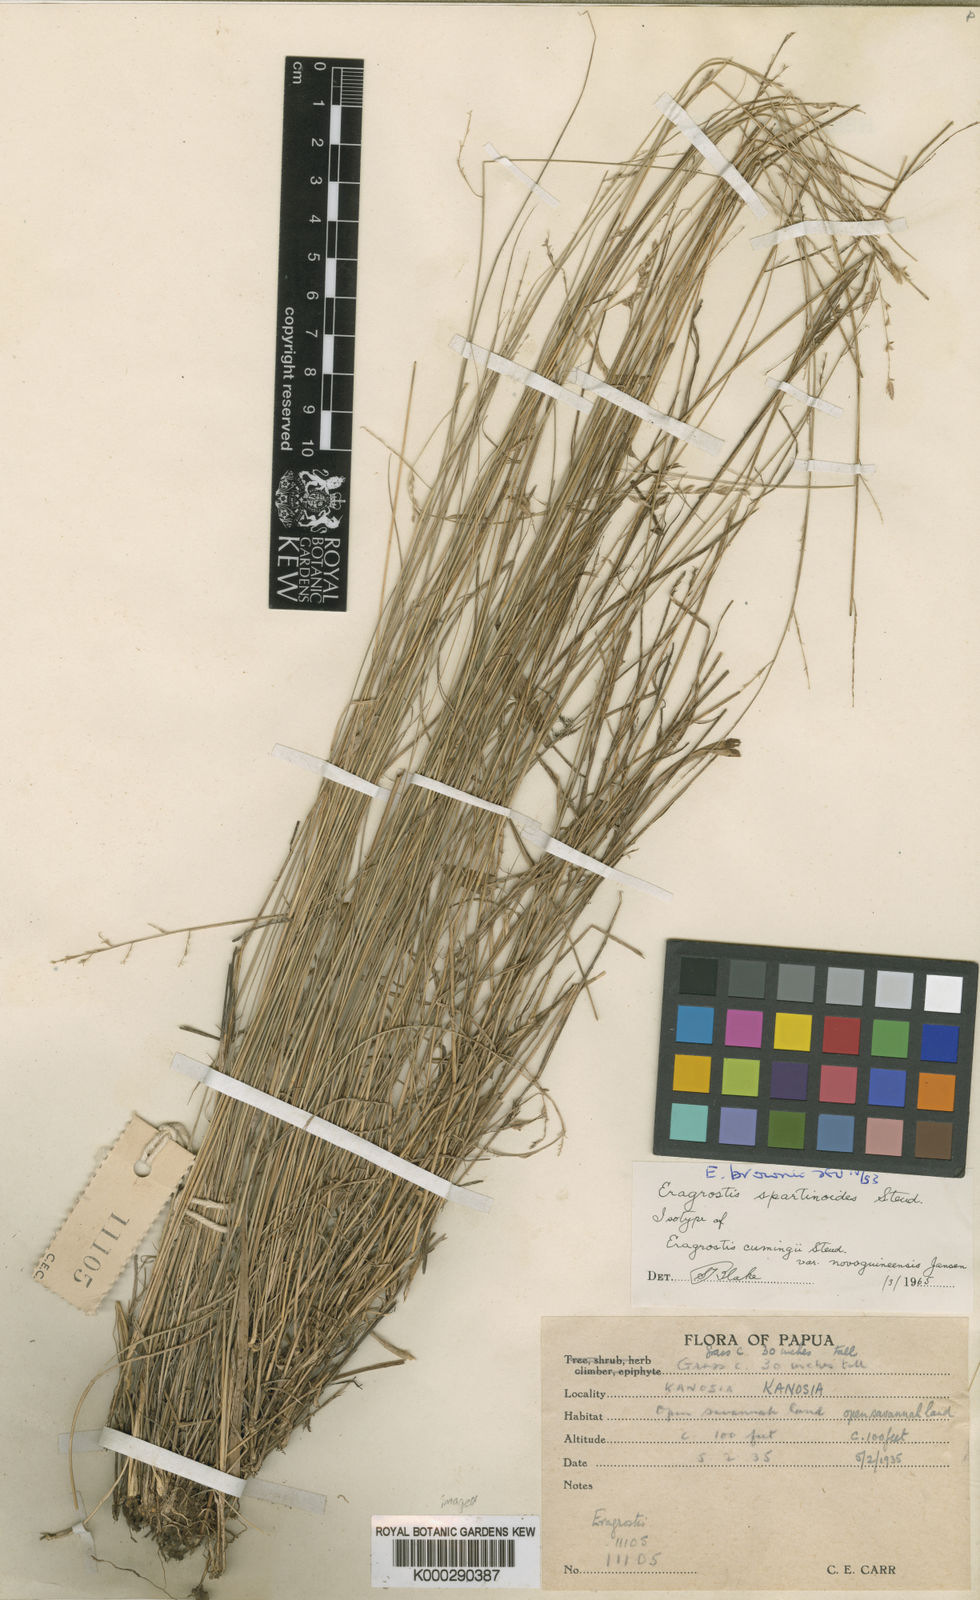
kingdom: Plantae
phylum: Tracheophyta
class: Liliopsida
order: Poales
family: Poaceae
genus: Eragrostis
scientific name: Eragrostis brownii
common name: Lovegrass
